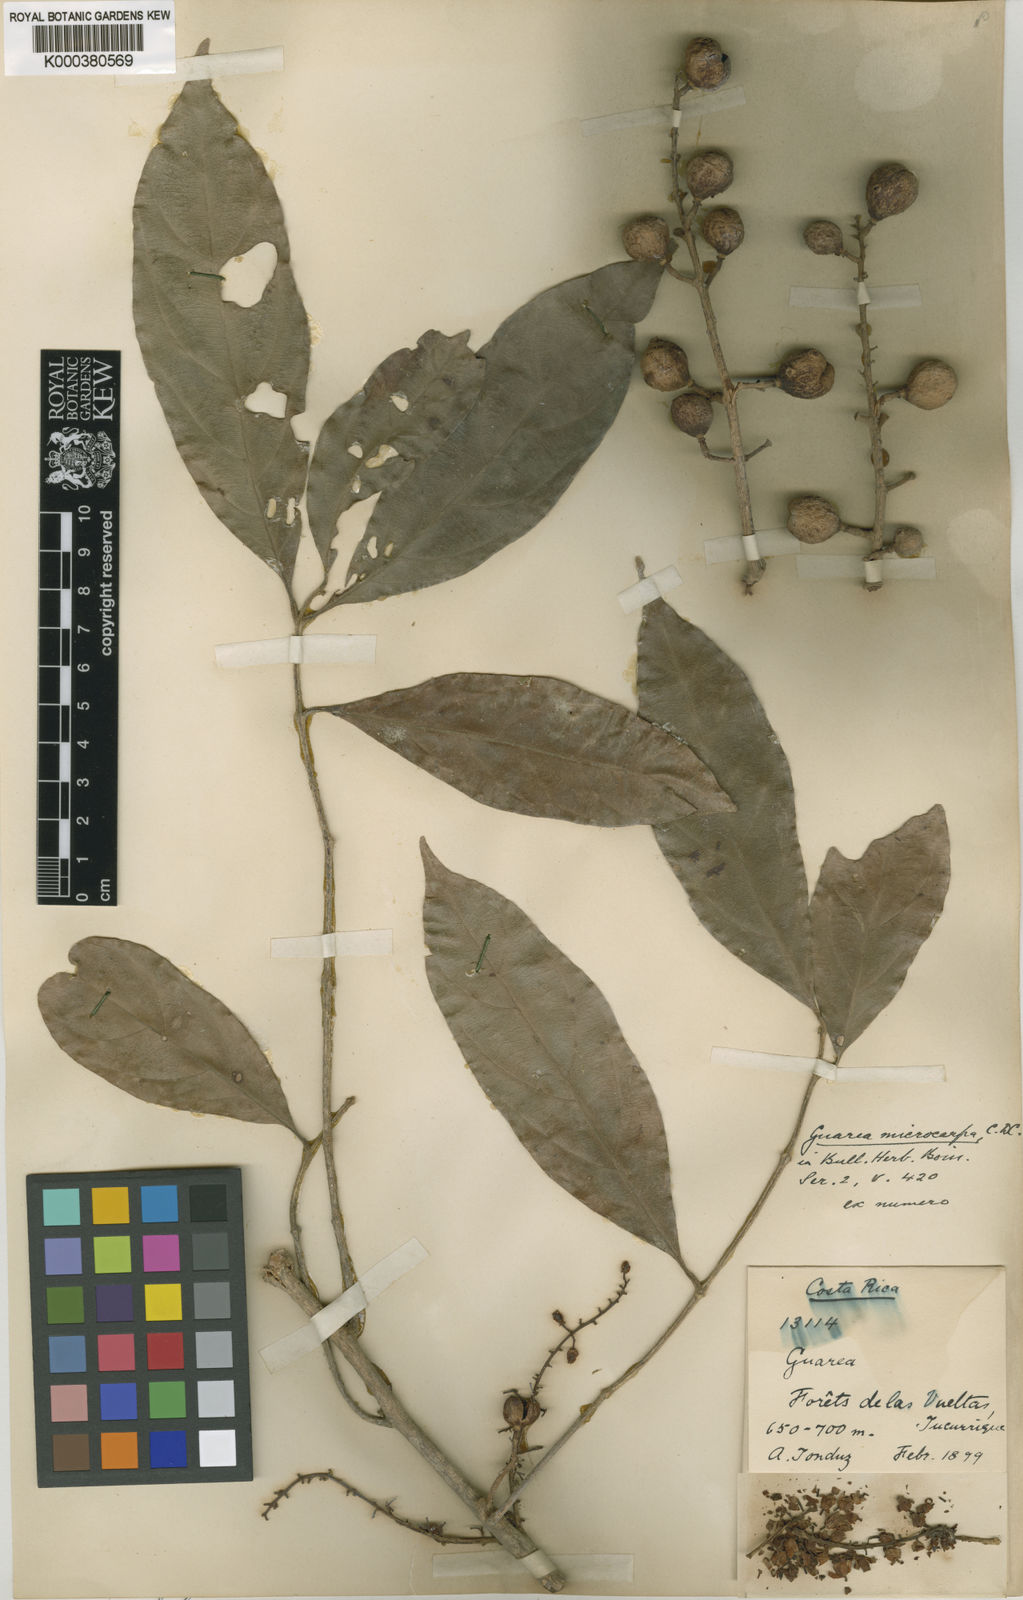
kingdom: Plantae
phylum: Tracheophyta
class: Magnoliopsida
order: Sapindales
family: Meliaceae
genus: Guarea
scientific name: Guarea glabra
